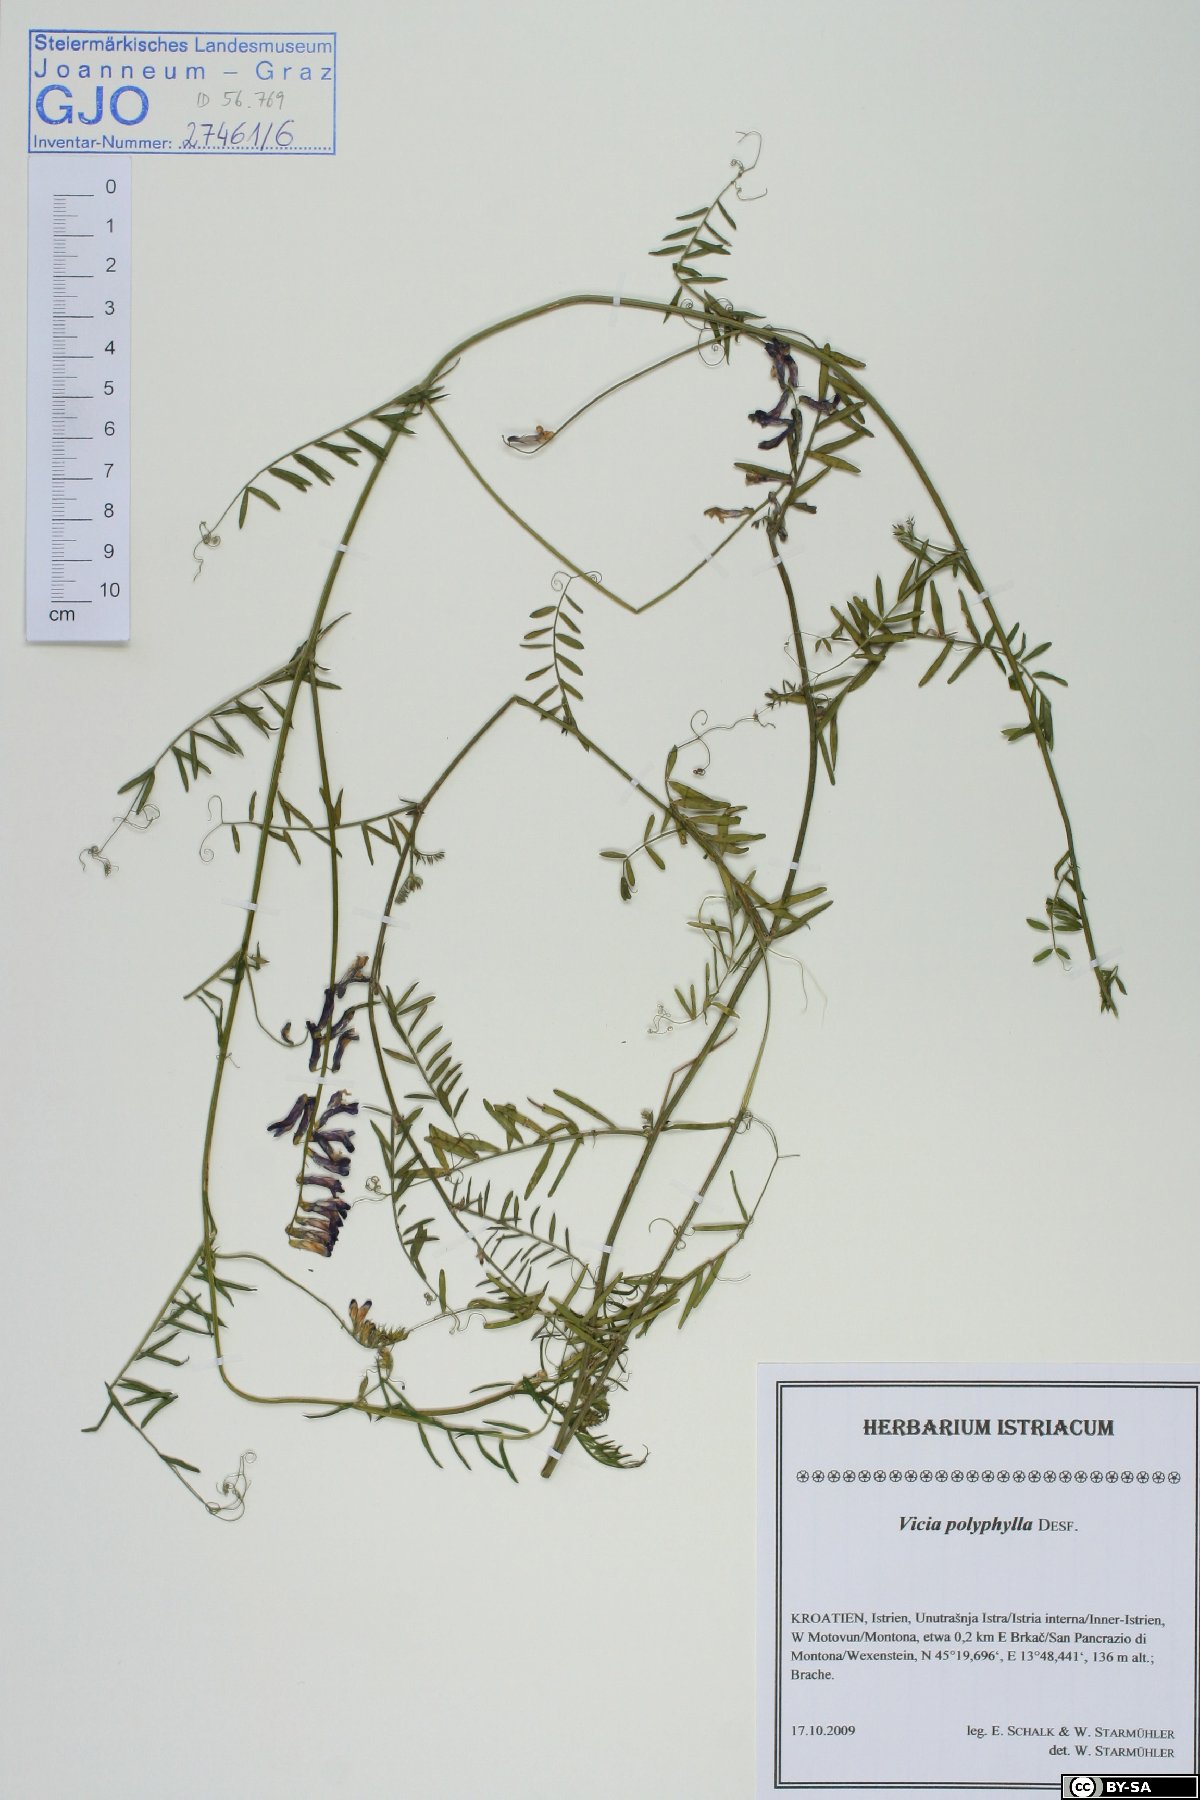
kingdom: Plantae
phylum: Tracheophyta
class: Magnoliopsida
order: Fabales
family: Fabaceae
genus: Vicia
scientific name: Vicia tenuifolia
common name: Fine-leaved vetch
